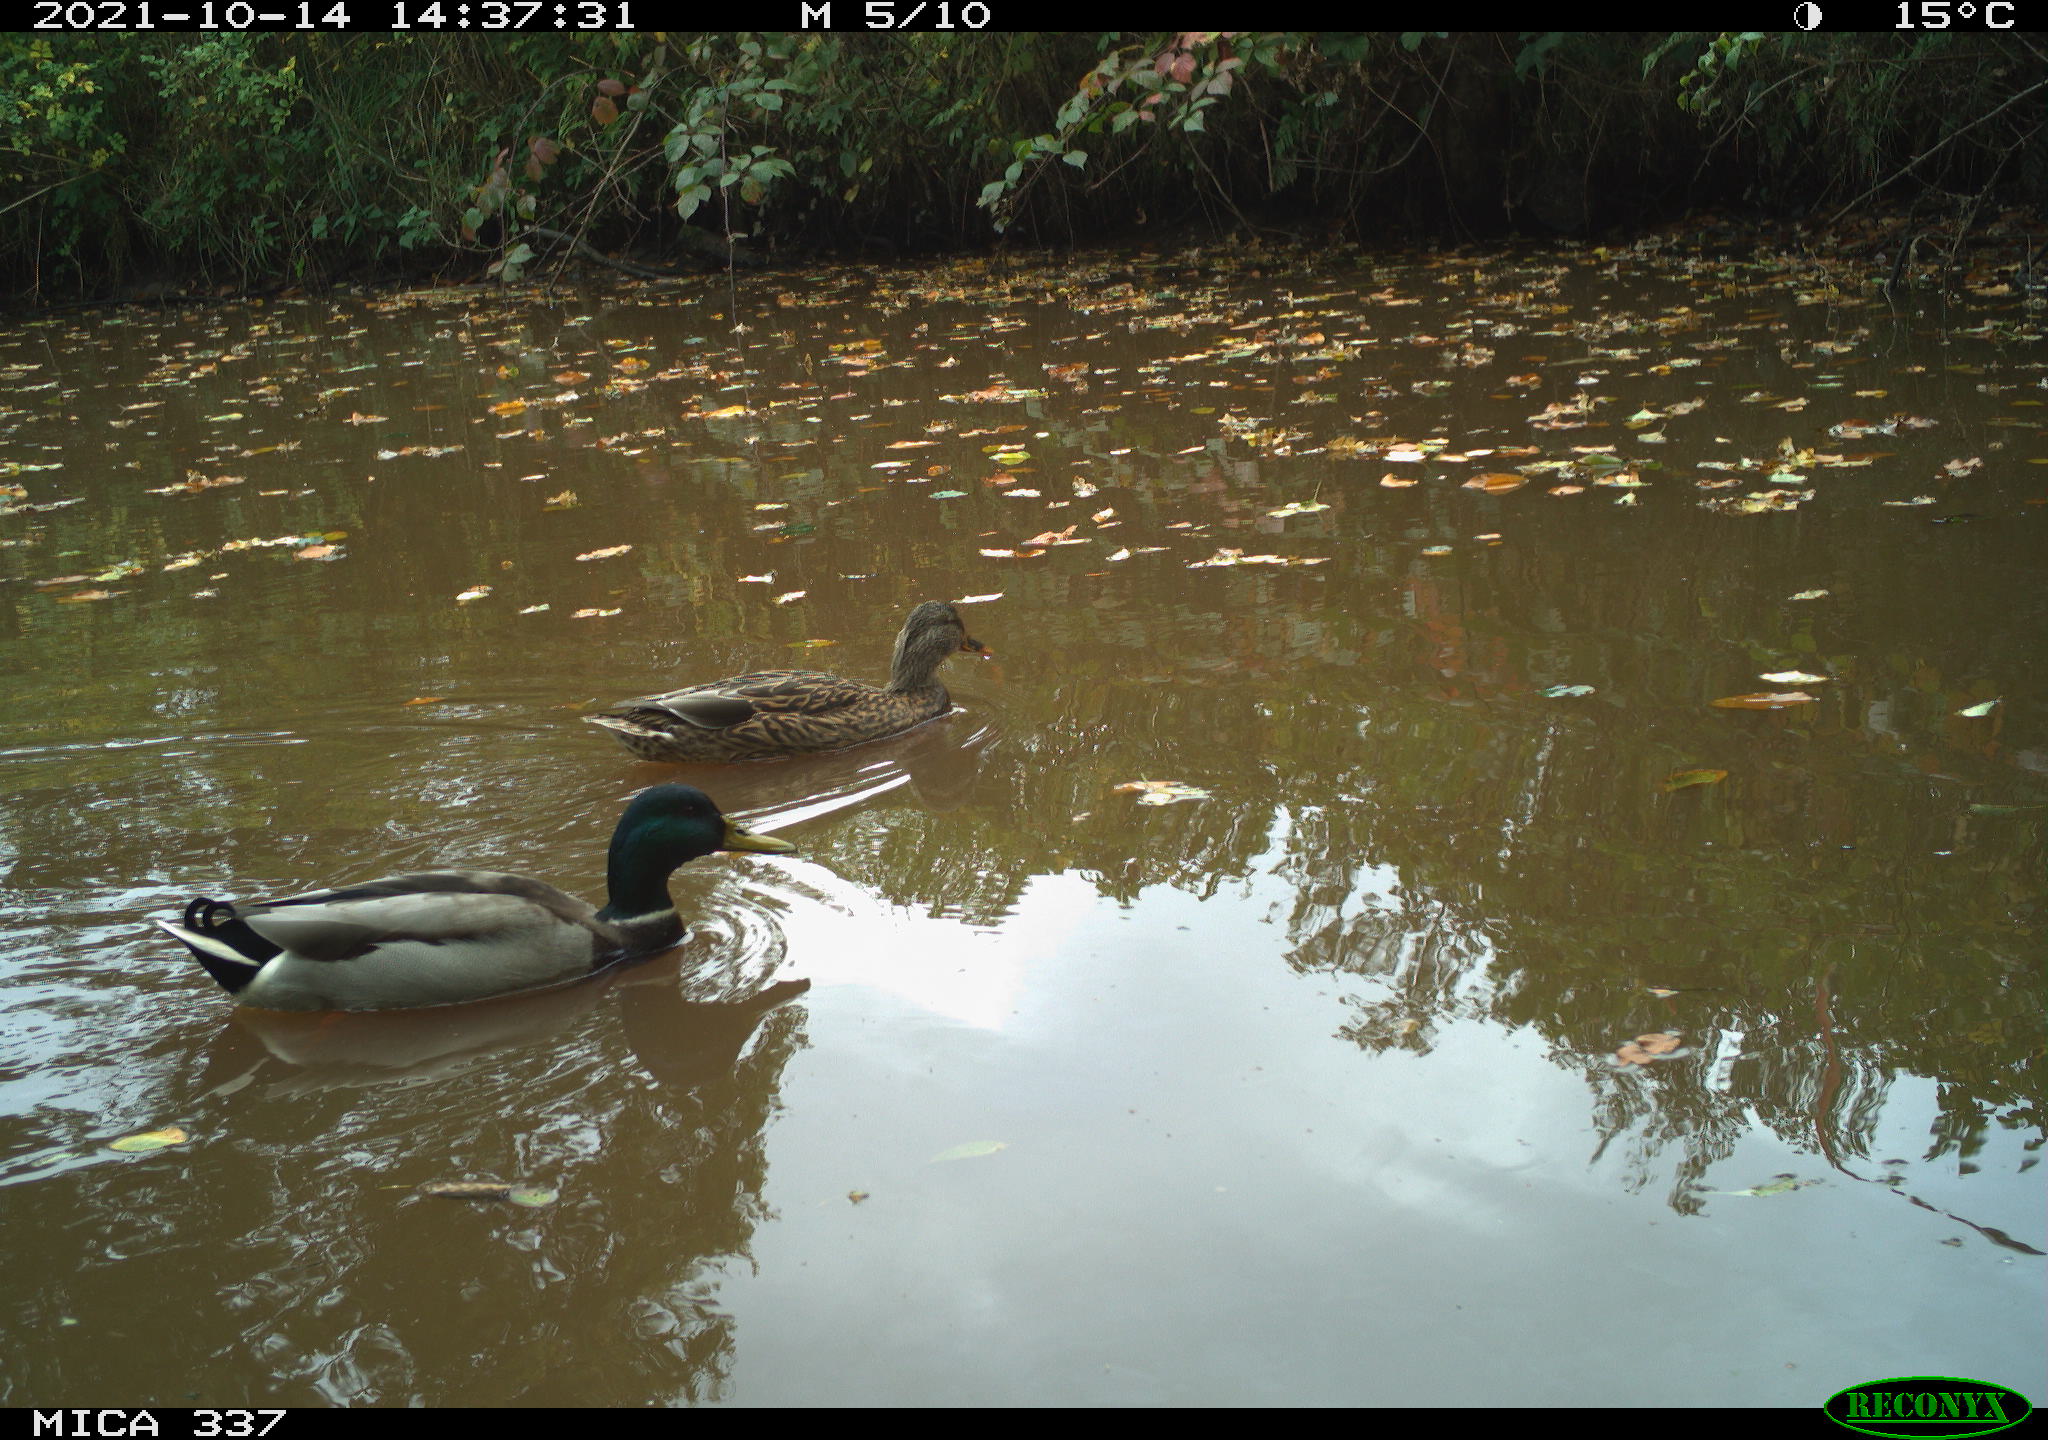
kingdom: Animalia
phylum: Chordata
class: Aves
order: Anseriformes
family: Anatidae
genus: Anas
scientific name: Anas platyrhynchos
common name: Mallard
